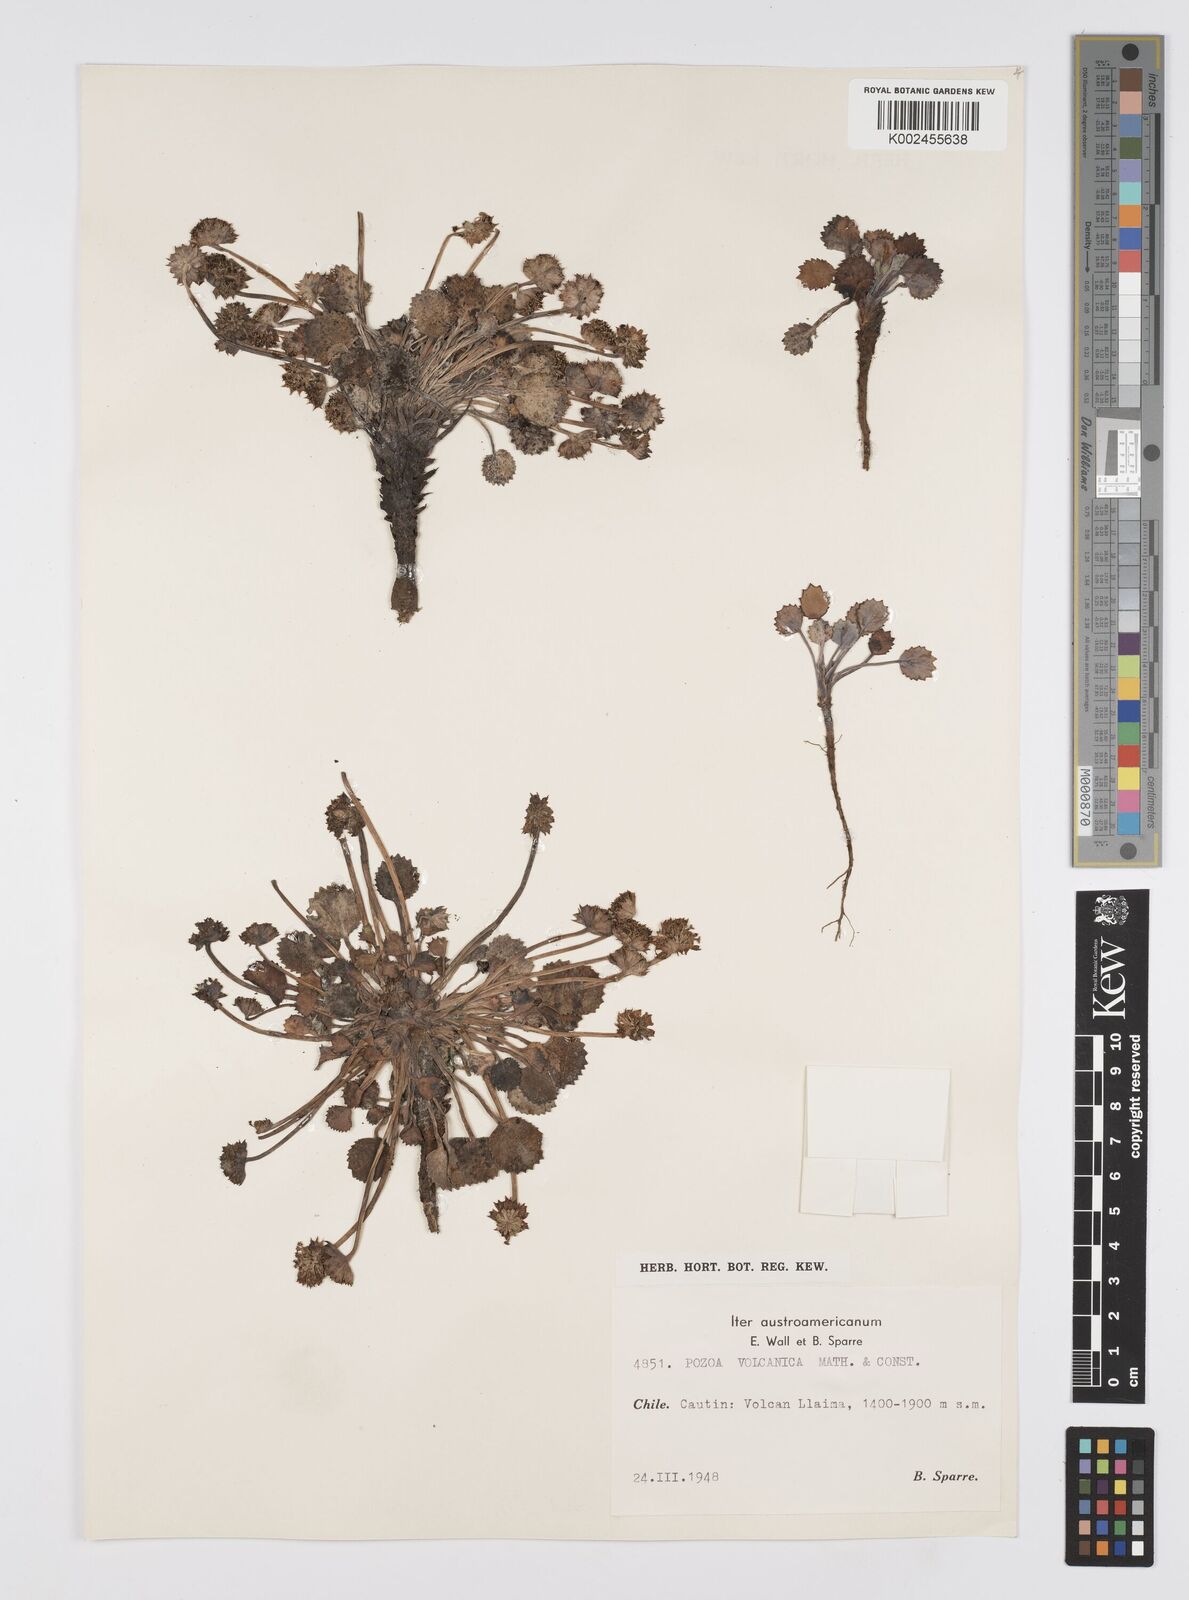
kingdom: Plantae
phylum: Tracheophyta
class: Magnoliopsida
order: Apiales
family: Apiaceae
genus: Pozoa
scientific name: Pozoa volcanica
